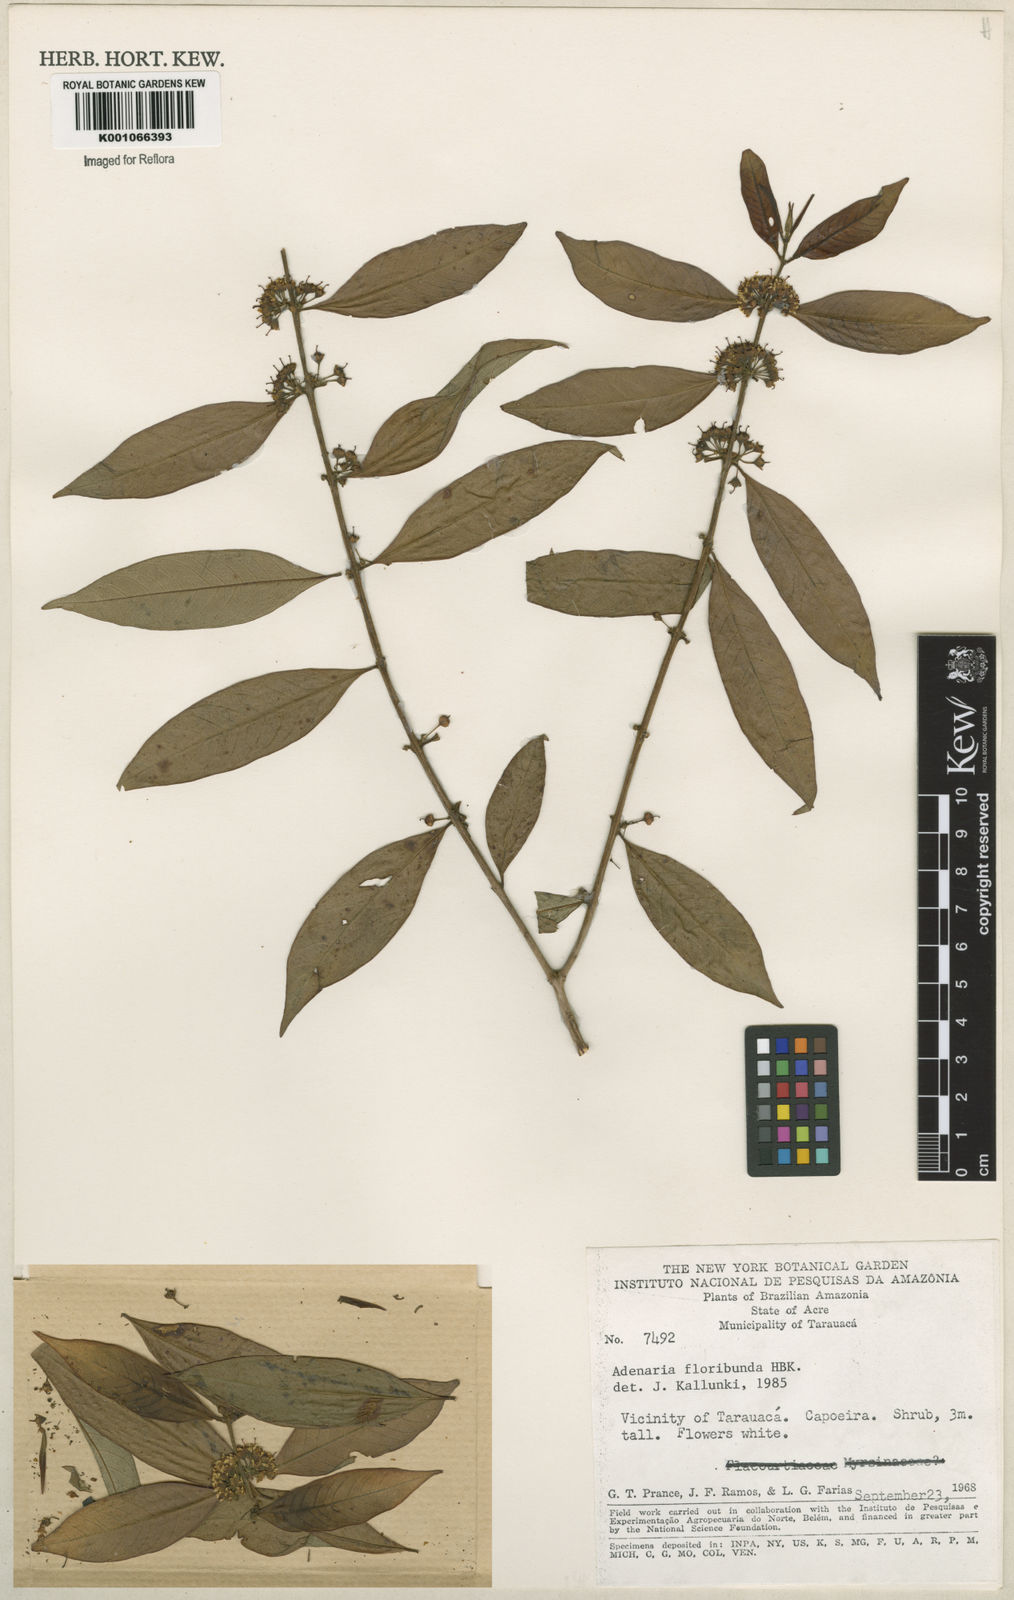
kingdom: Plantae
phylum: Tracheophyta
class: Magnoliopsida
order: Myrtales
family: Lythraceae
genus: Adenaria
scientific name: Adenaria floribunda
